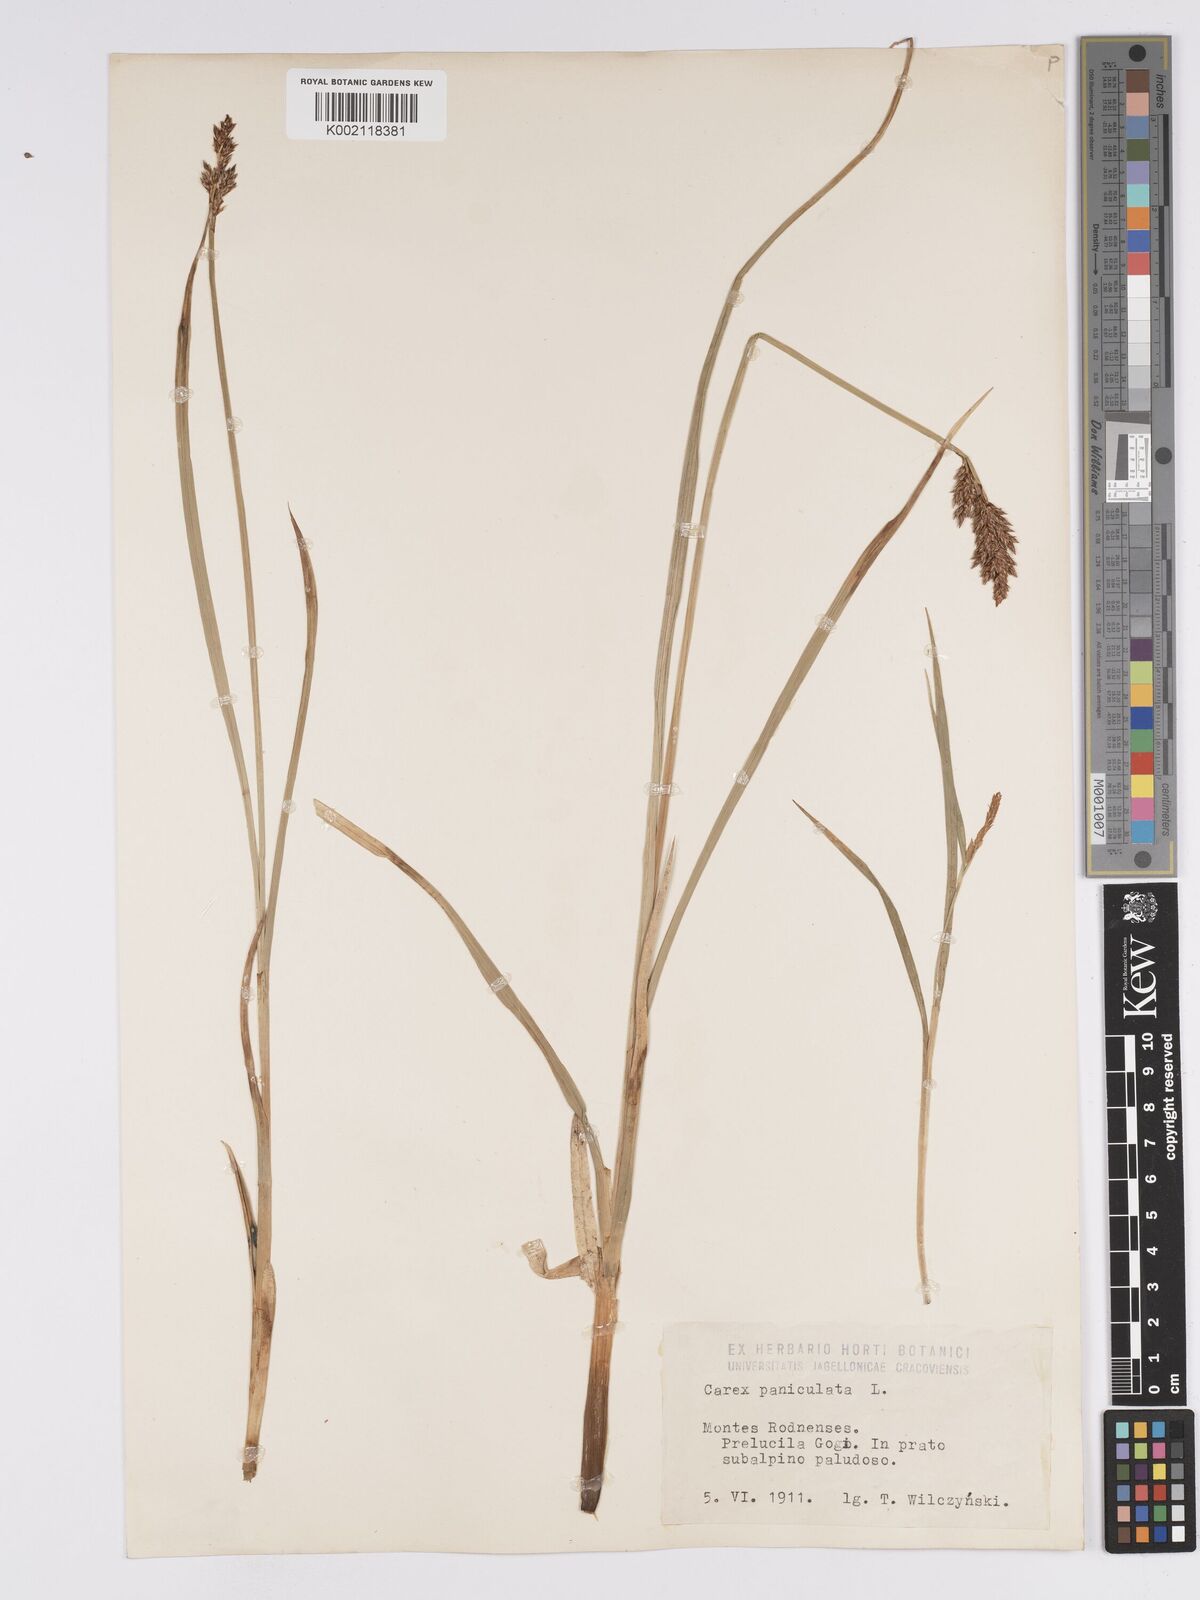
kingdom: Plantae
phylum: Tracheophyta
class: Liliopsida
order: Poales
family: Cyperaceae
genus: Carex
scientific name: Carex paniculata
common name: Greater tussock-sedge
